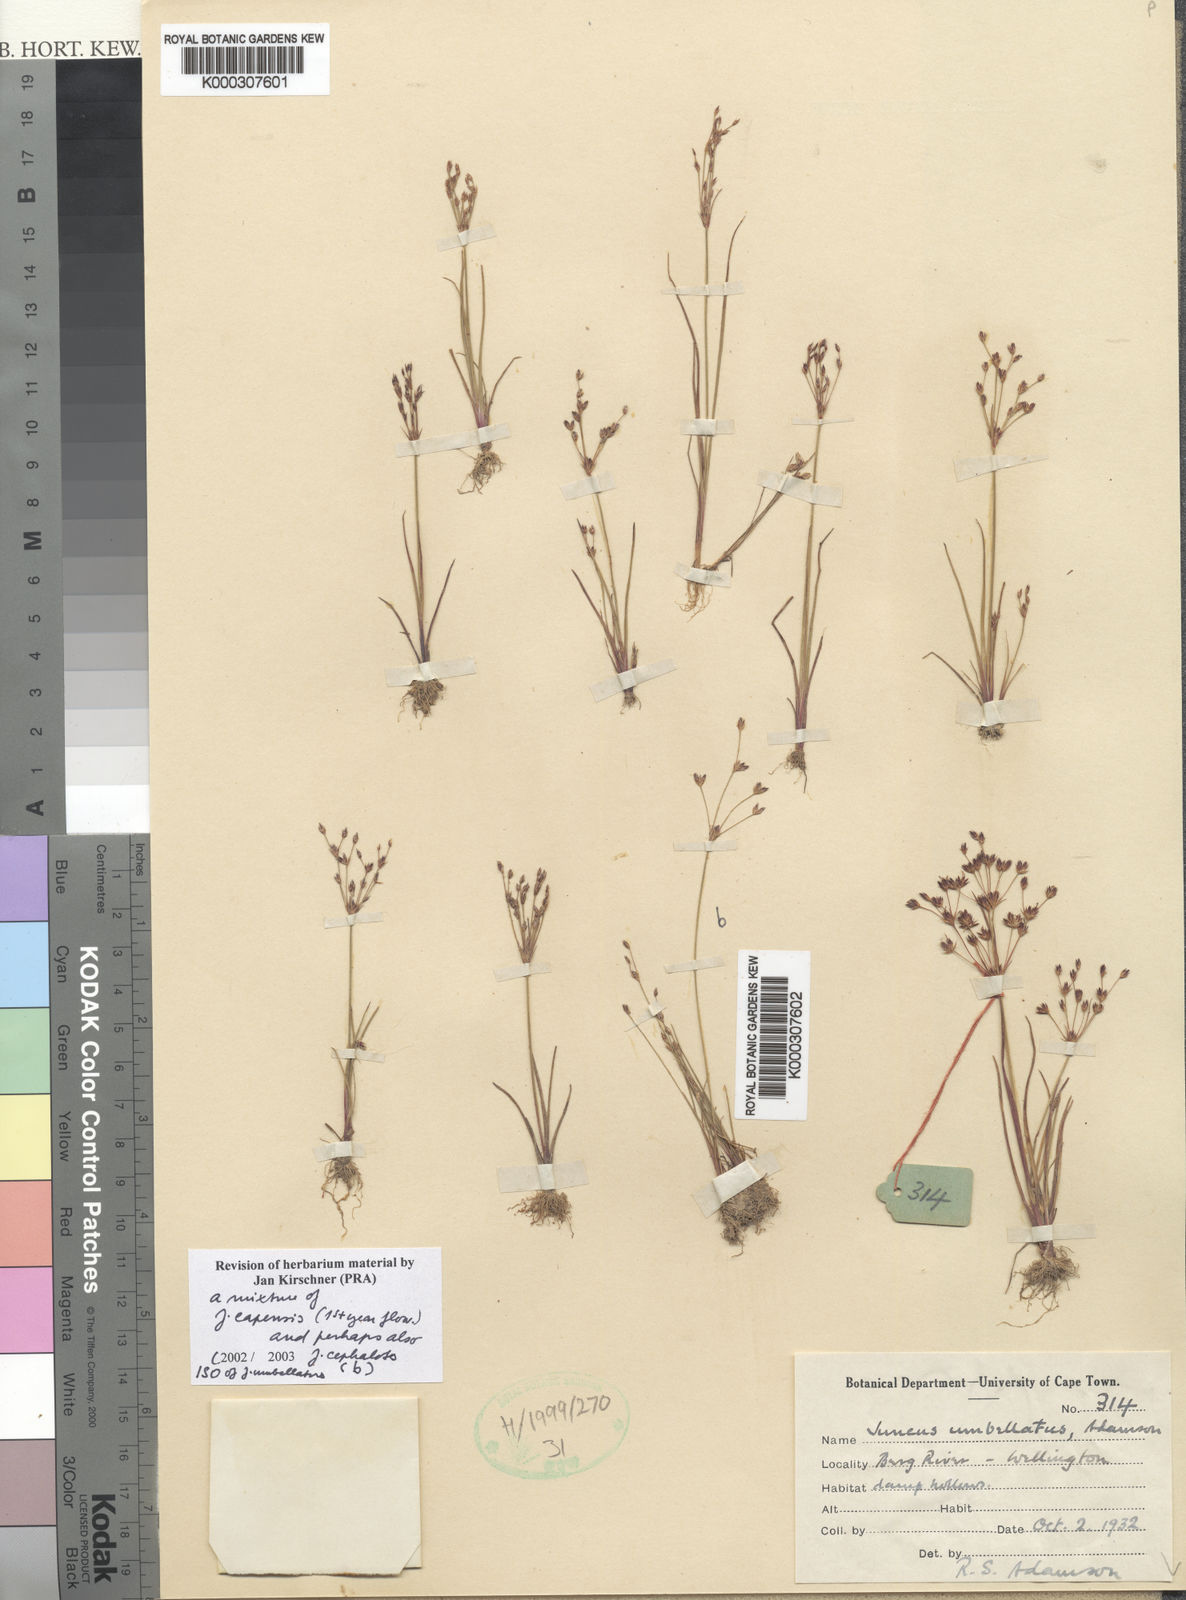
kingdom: Plantae
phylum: Tracheophyta
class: Liliopsida
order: Poales
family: Juncaceae
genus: Juncus
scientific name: Juncus cephalotes
